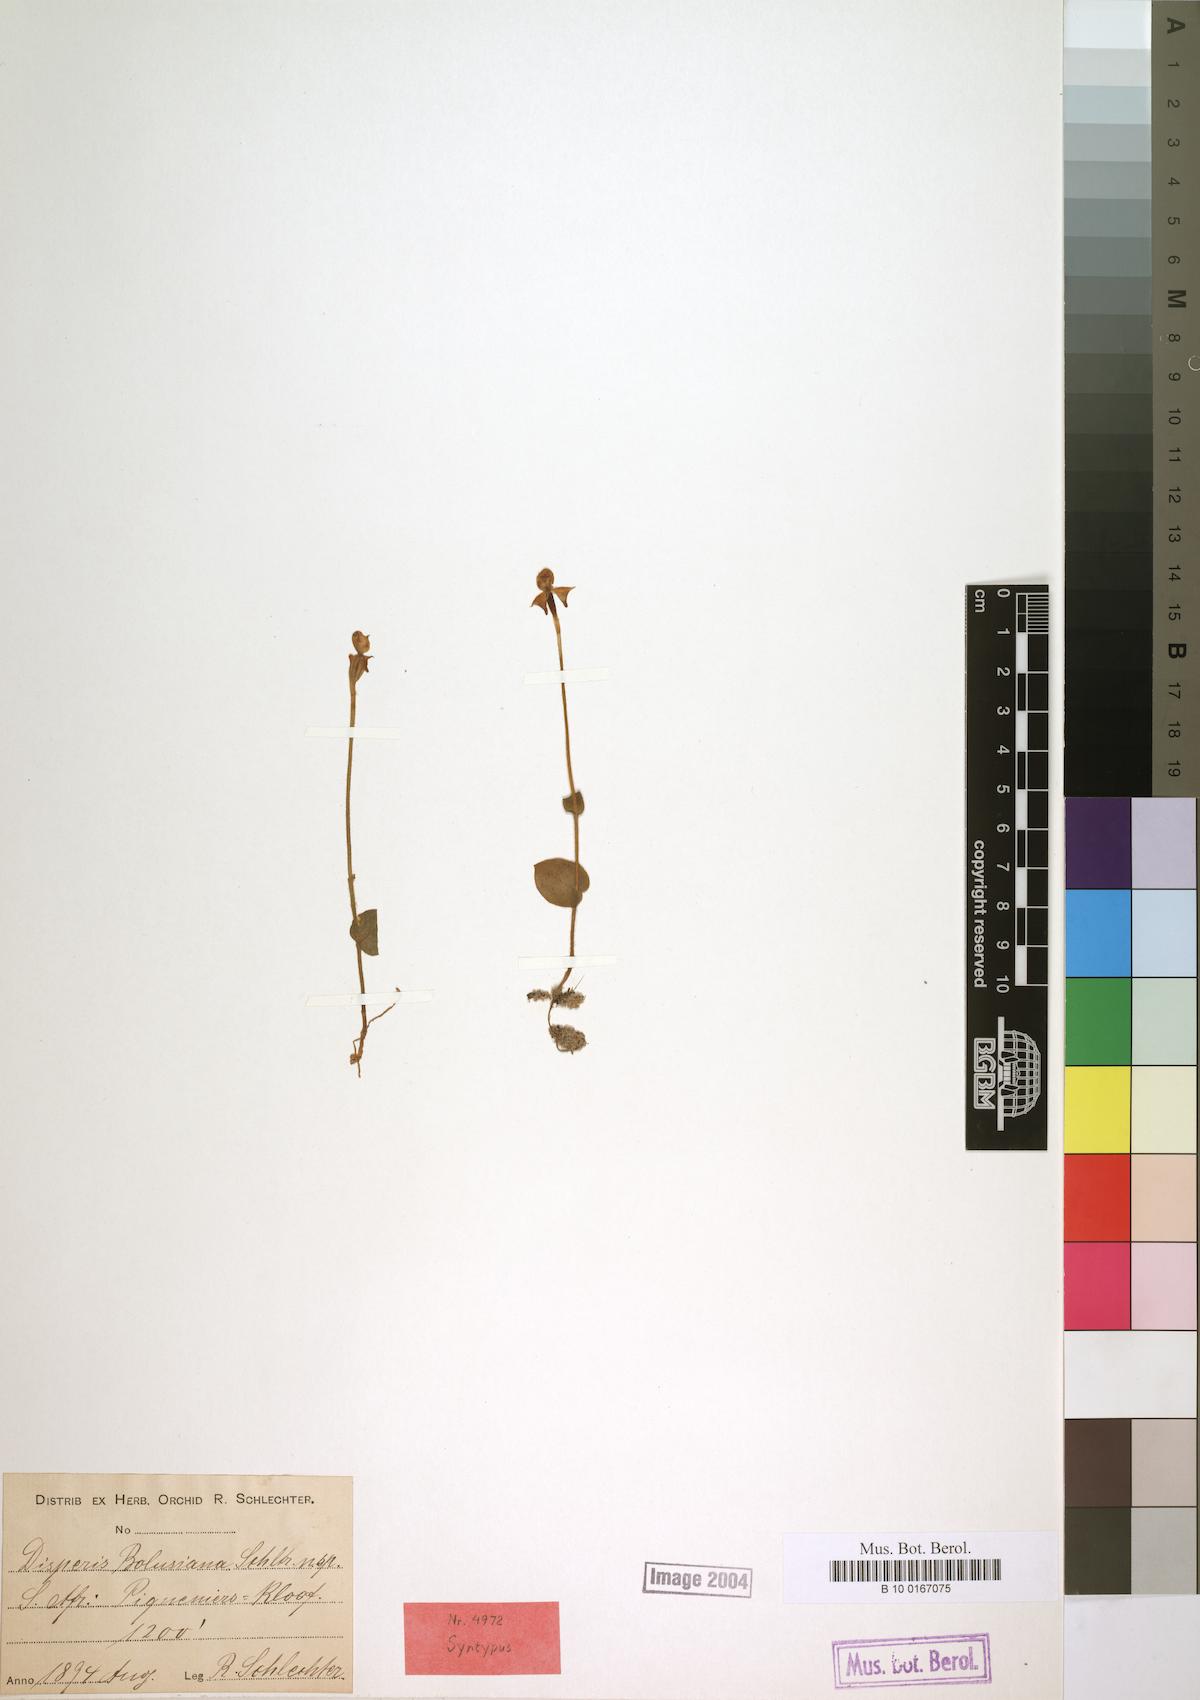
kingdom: Plantae
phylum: Tracheophyta
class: Liliopsida
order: Asparagales
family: Orchidaceae
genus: Disperis
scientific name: Disperis bolusiana
